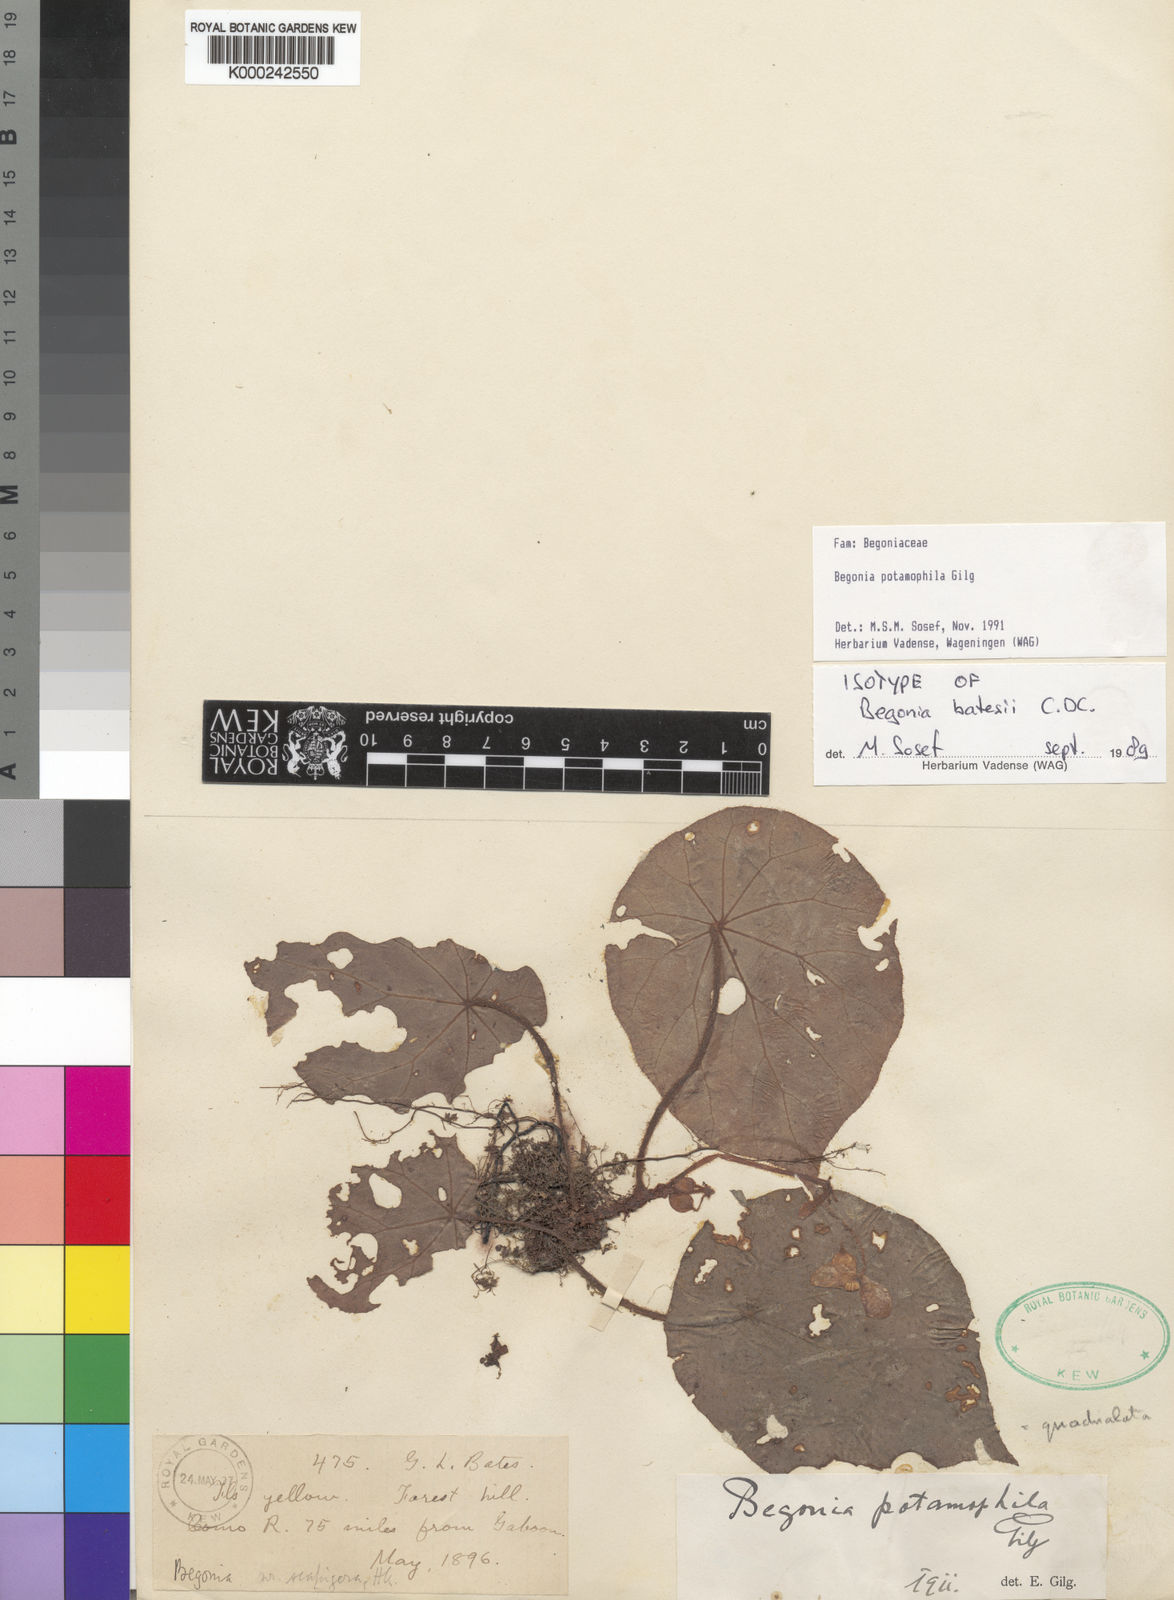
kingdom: Plantae
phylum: Tracheophyta
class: Magnoliopsida
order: Cucurbitales
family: Begoniaceae
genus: Begonia
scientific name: Begonia potamophila
